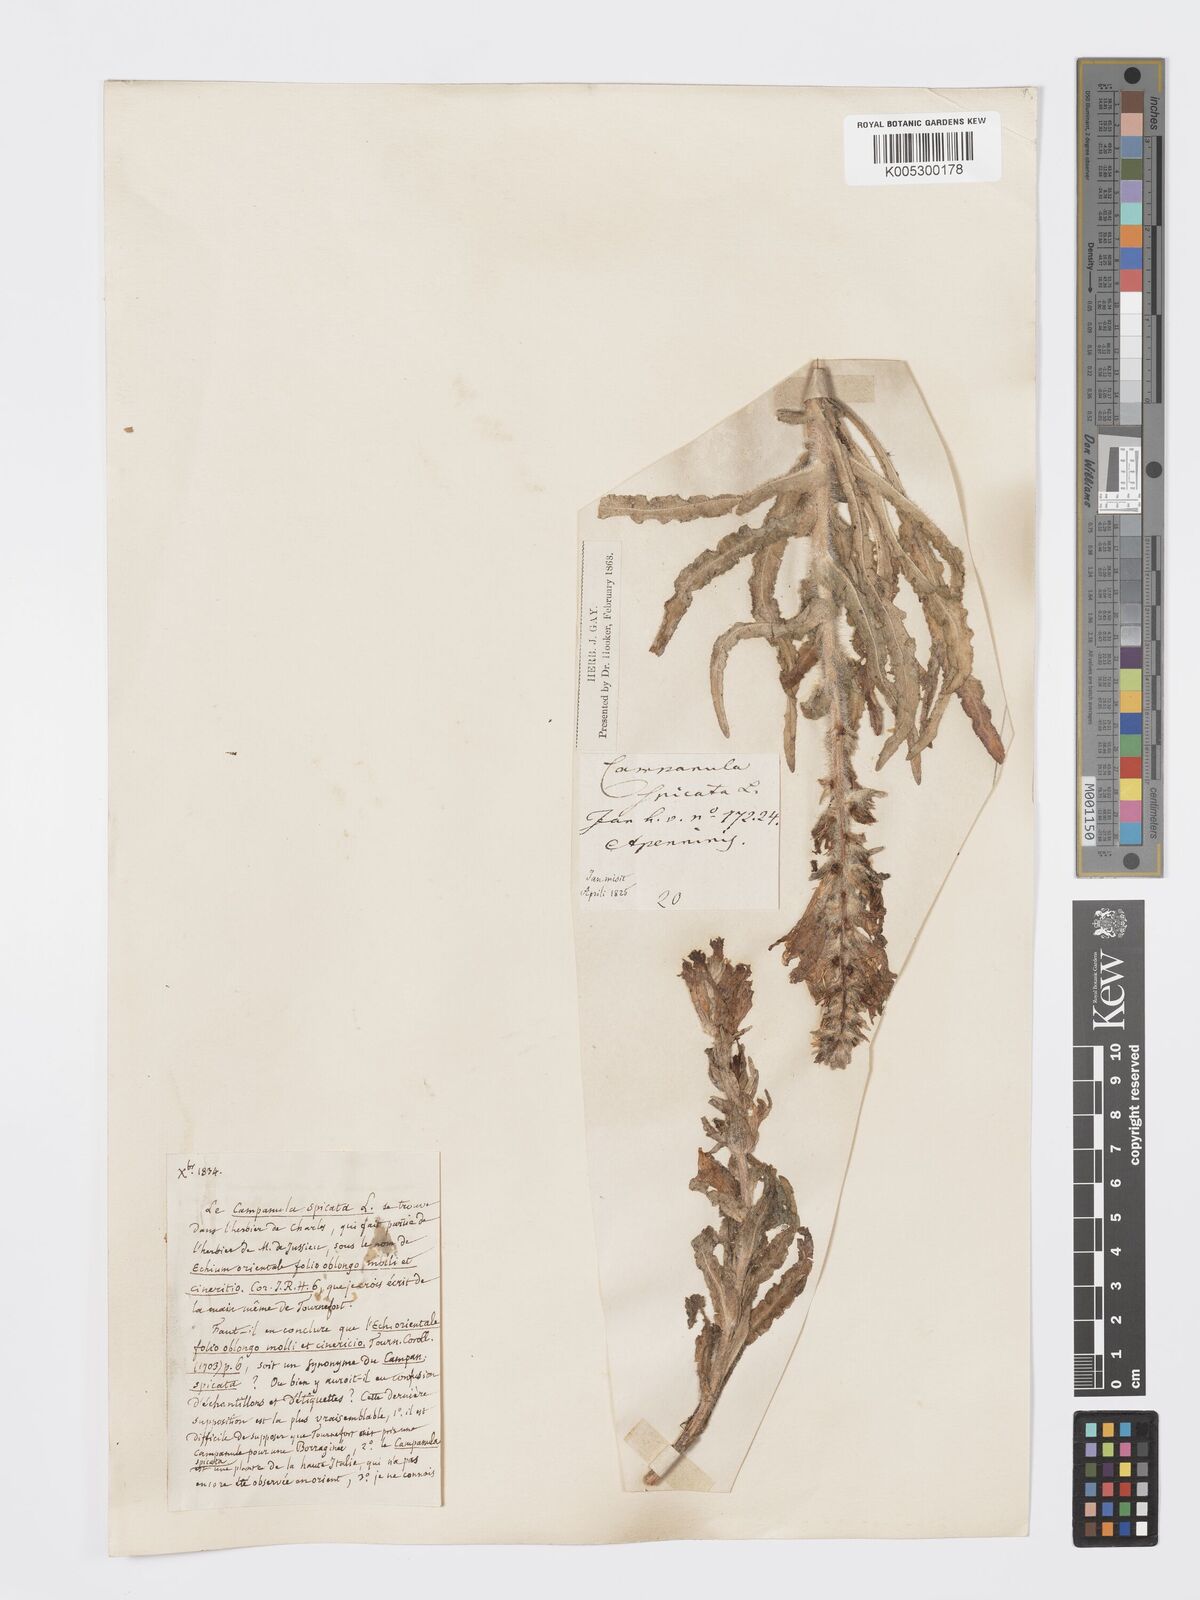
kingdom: Plantae
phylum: Tracheophyta
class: Magnoliopsida
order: Asterales
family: Campanulaceae
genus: Campanula
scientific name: Campanula spicata
